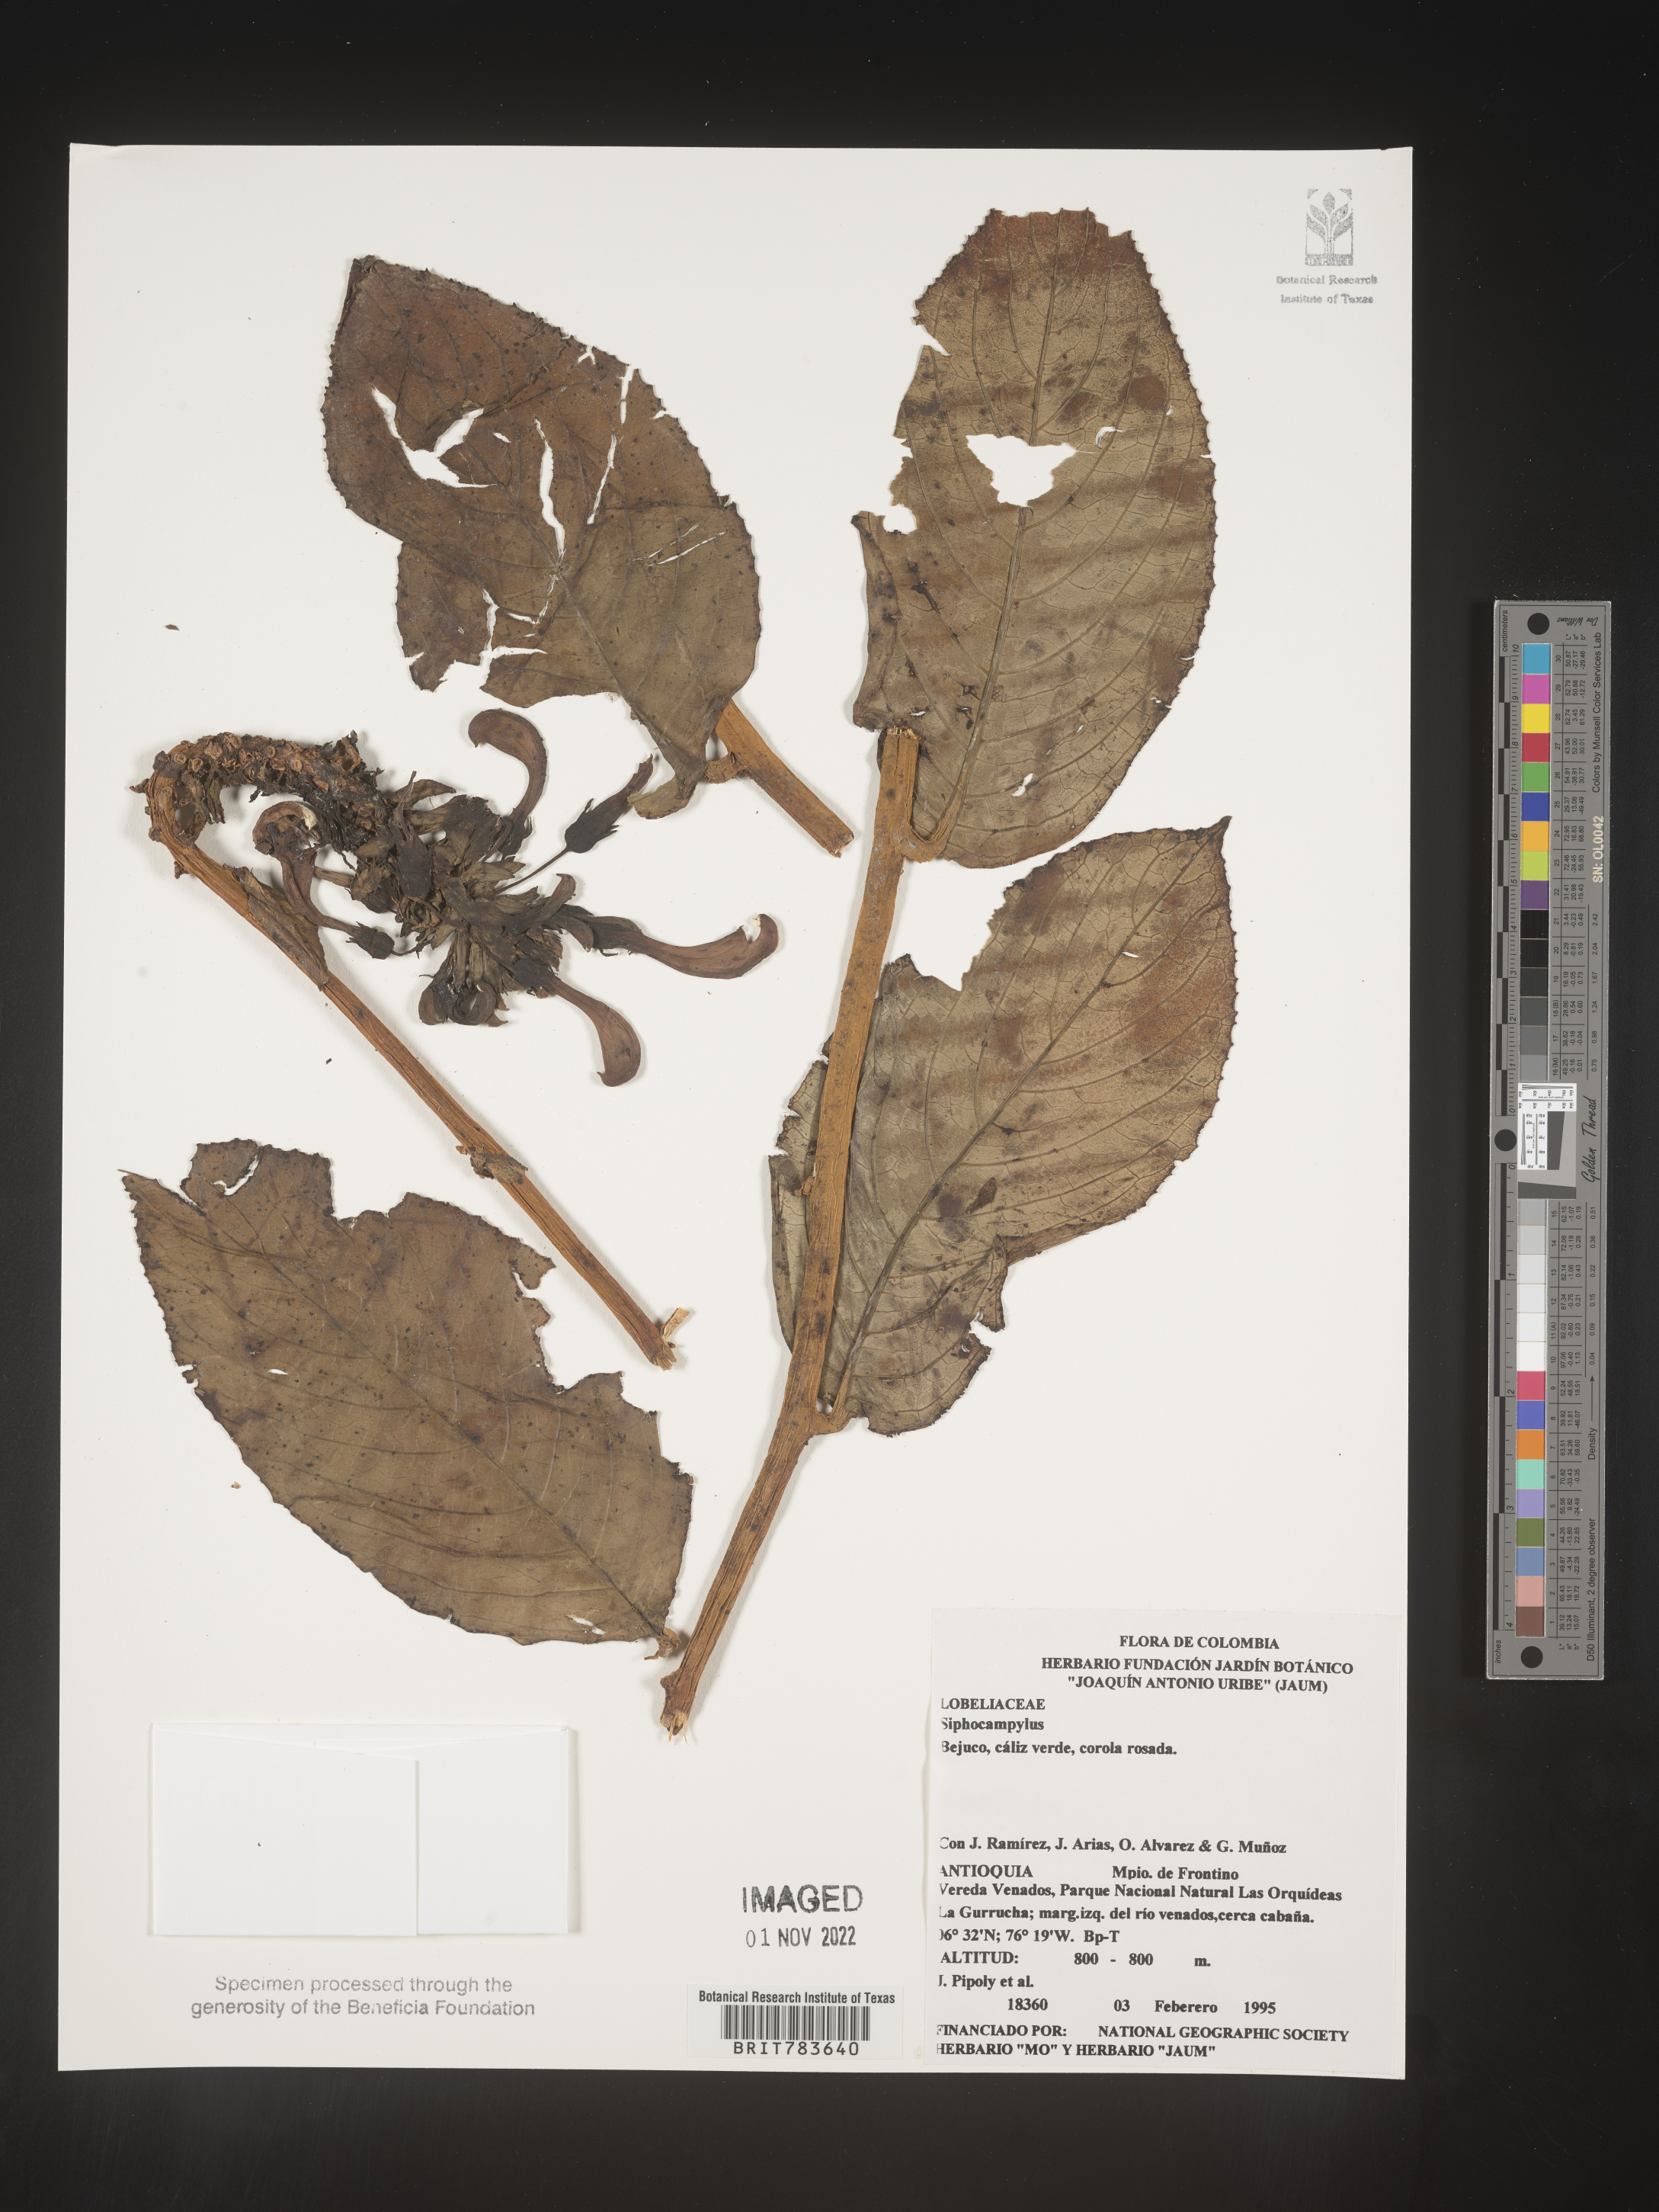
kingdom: Plantae
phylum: Tracheophyta
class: Magnoliopsida
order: Asterales
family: Campanulaceae
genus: Siphocampylus
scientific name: Siphocampylus
